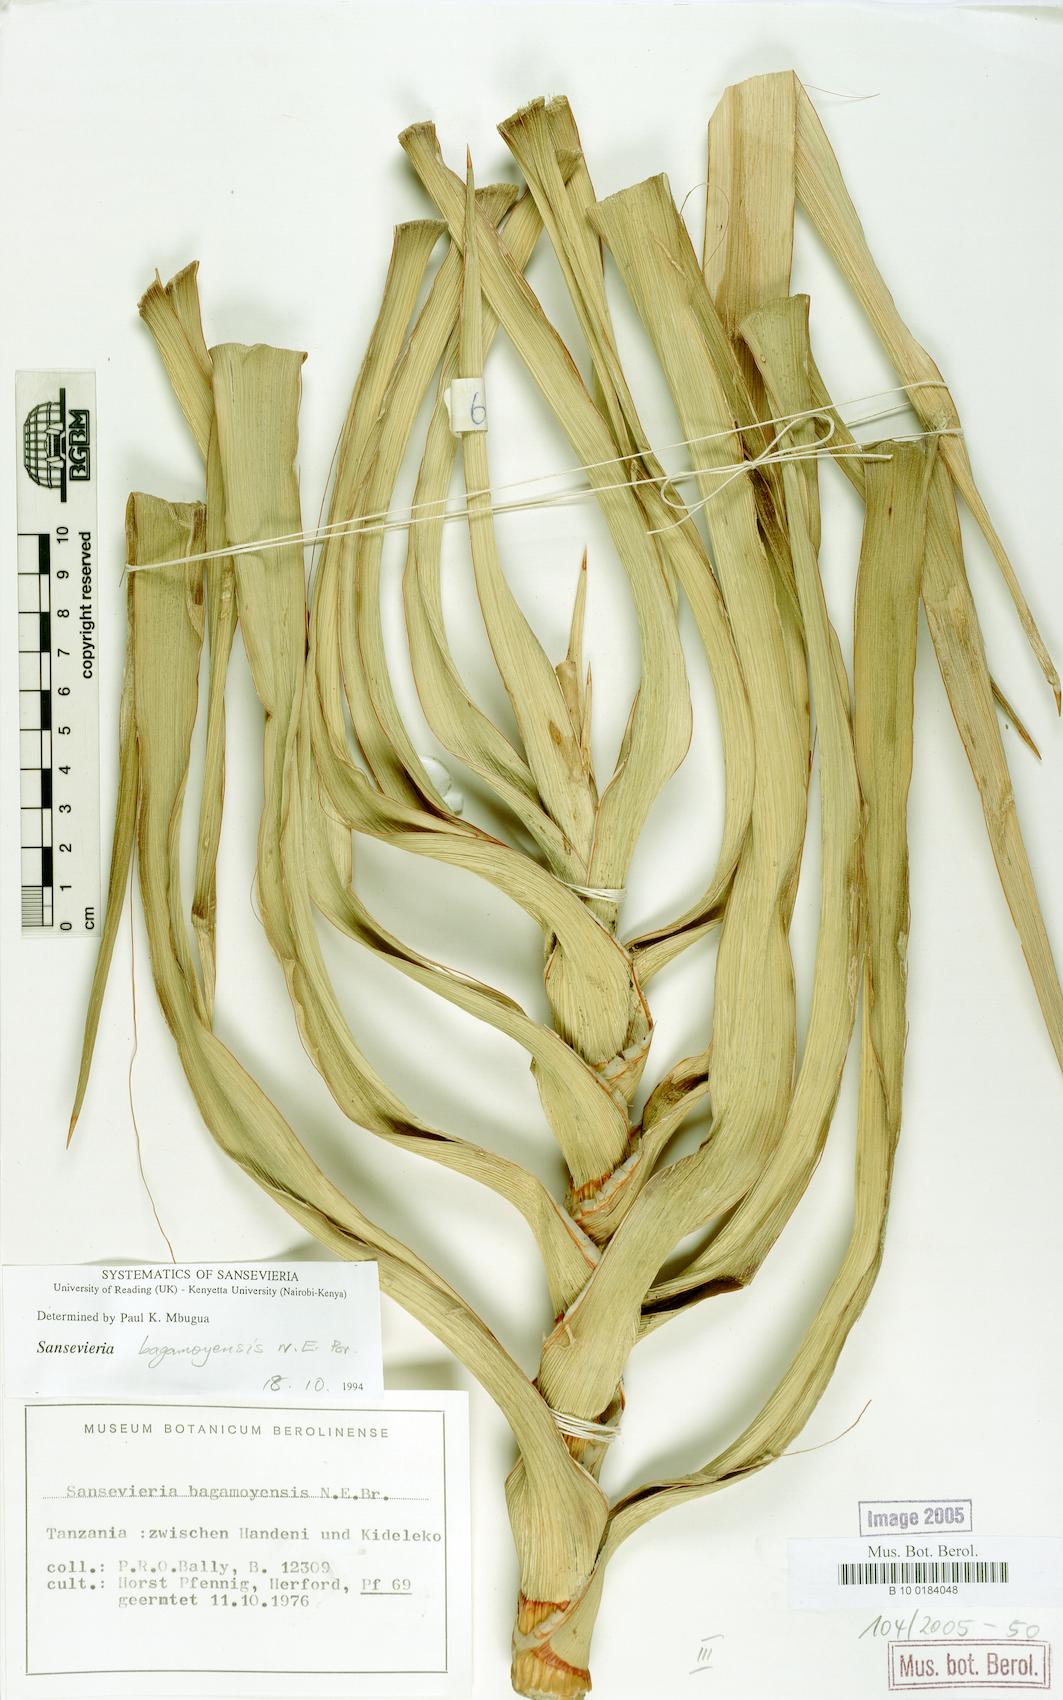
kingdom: Plantae
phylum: Tracheophyta
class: Liliopsida
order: Asparagales
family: Asparagaceae
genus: Dracaena
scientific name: Dracaena bagamoyensis
